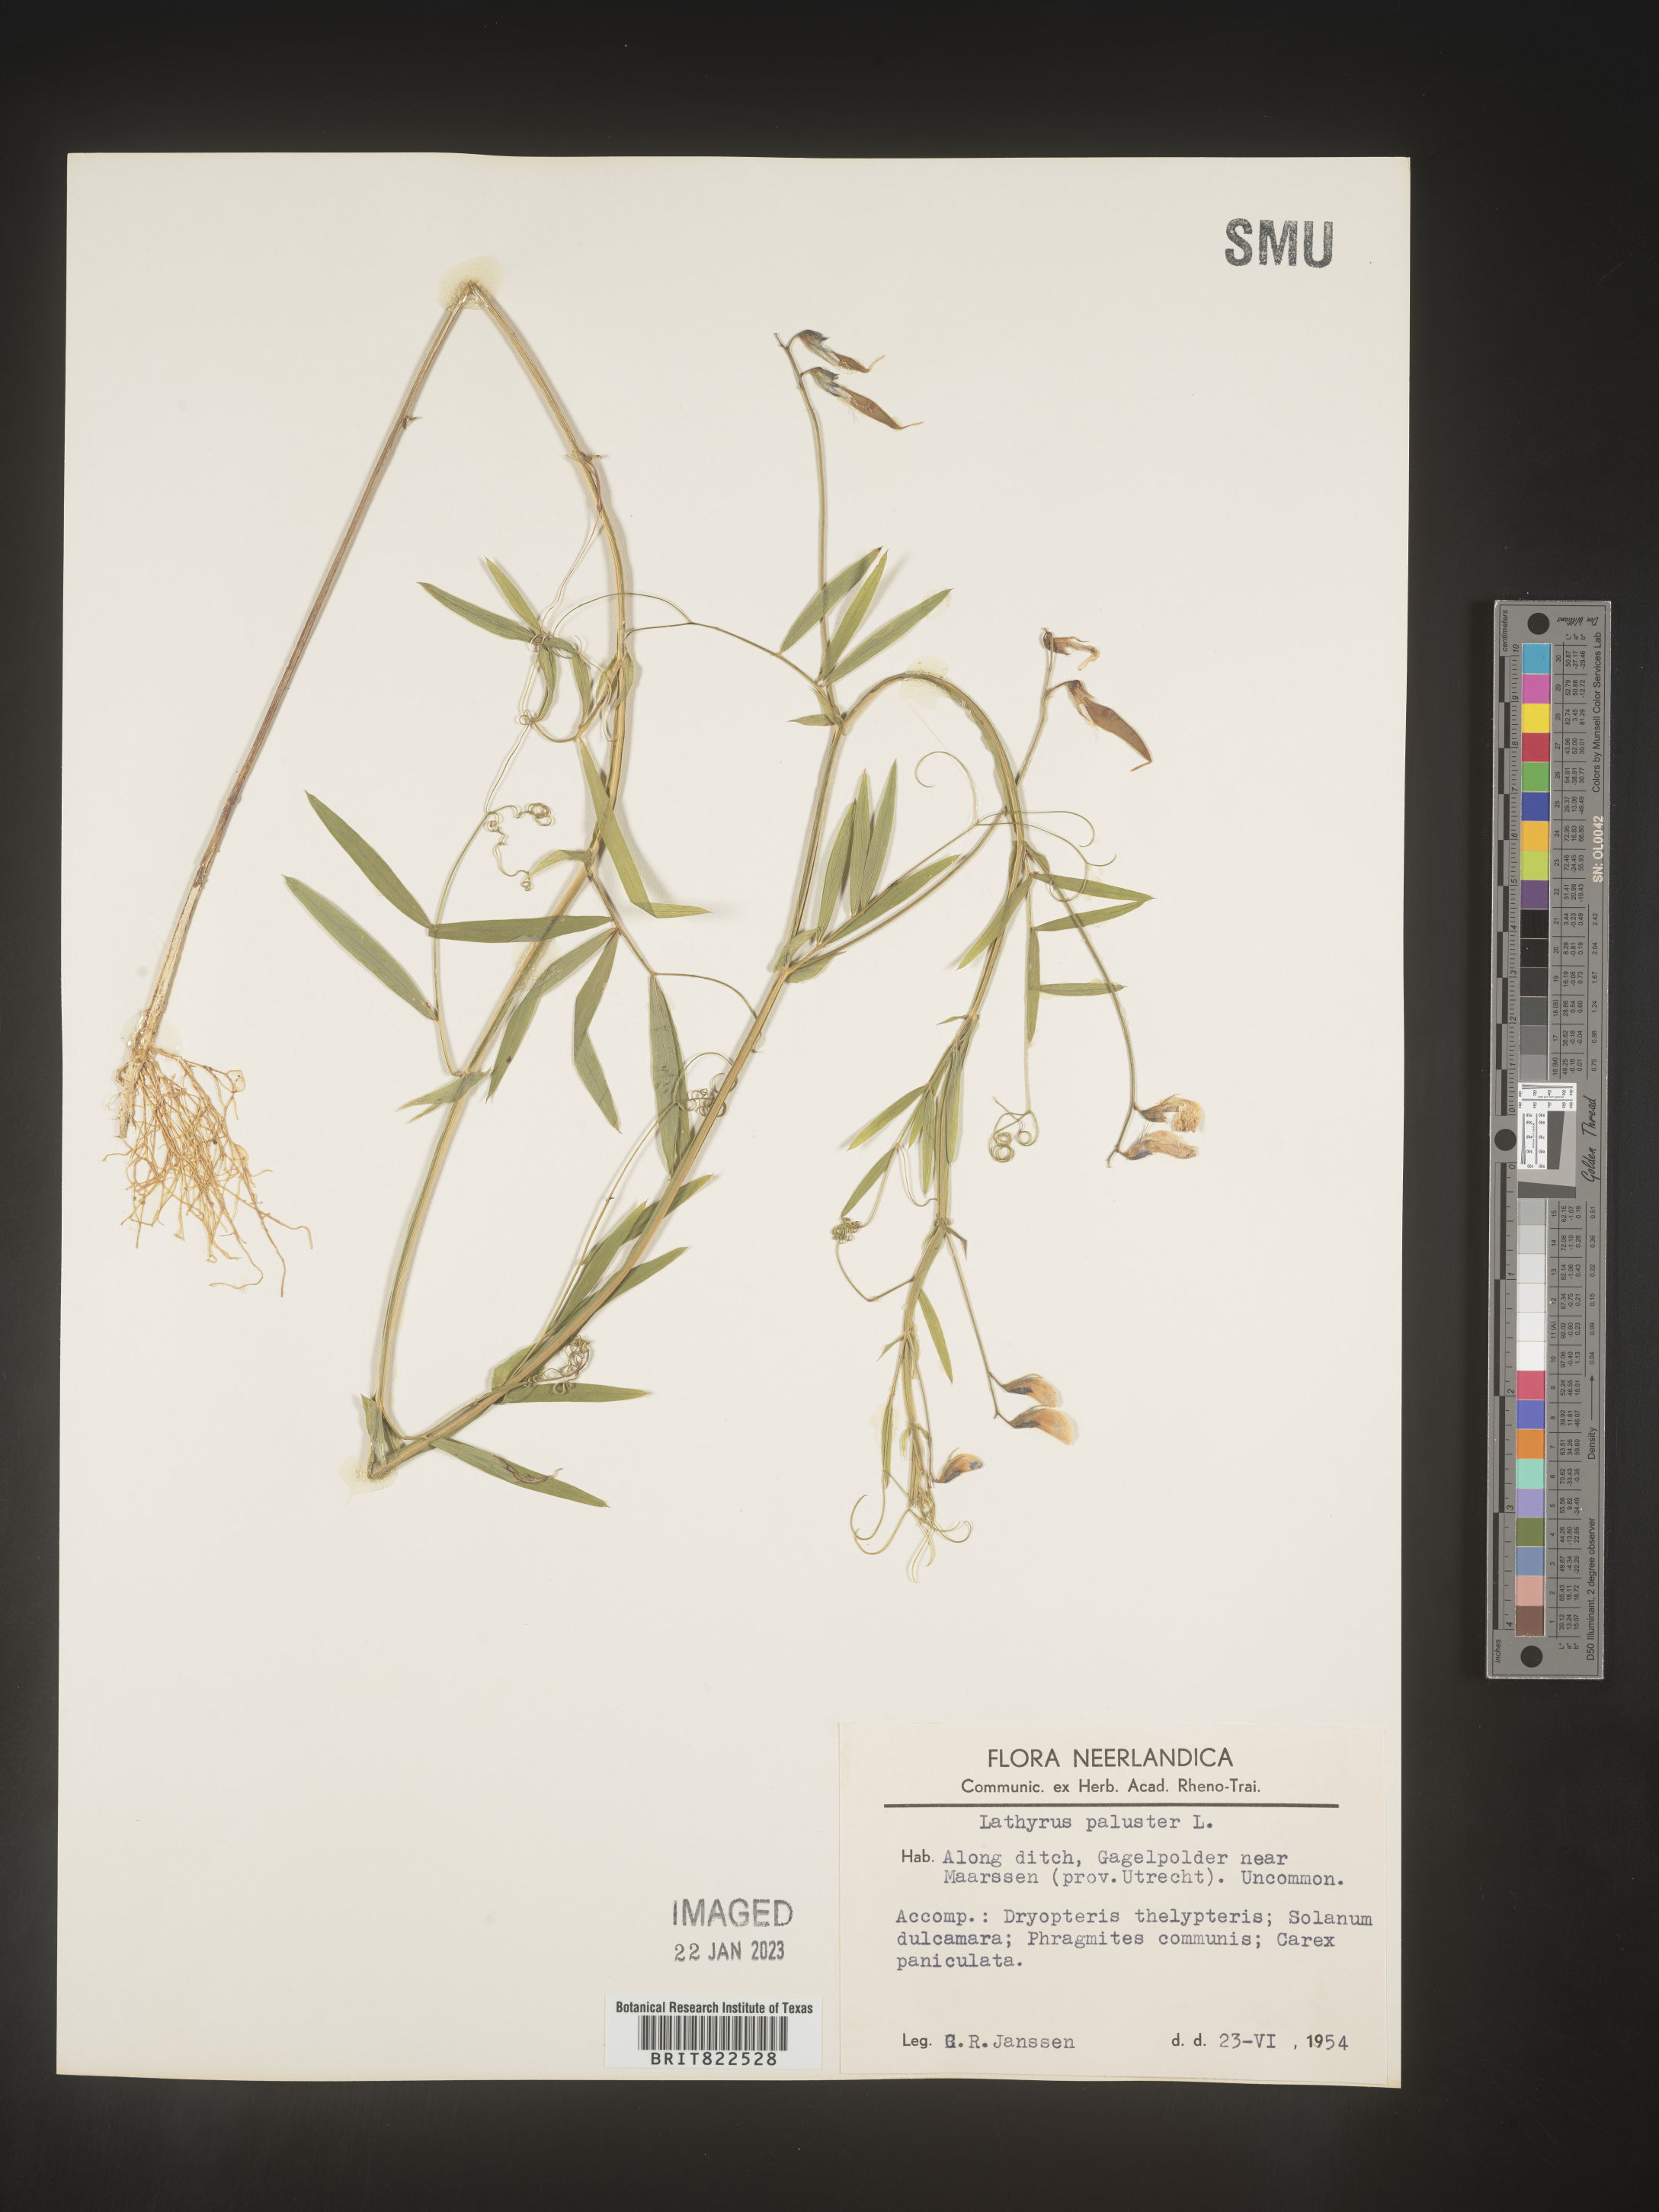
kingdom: Plantae
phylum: Tracheophyta
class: Magnoliopsida
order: Fabales
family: Fabaceae
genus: Lathyrus
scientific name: Lathyrus
